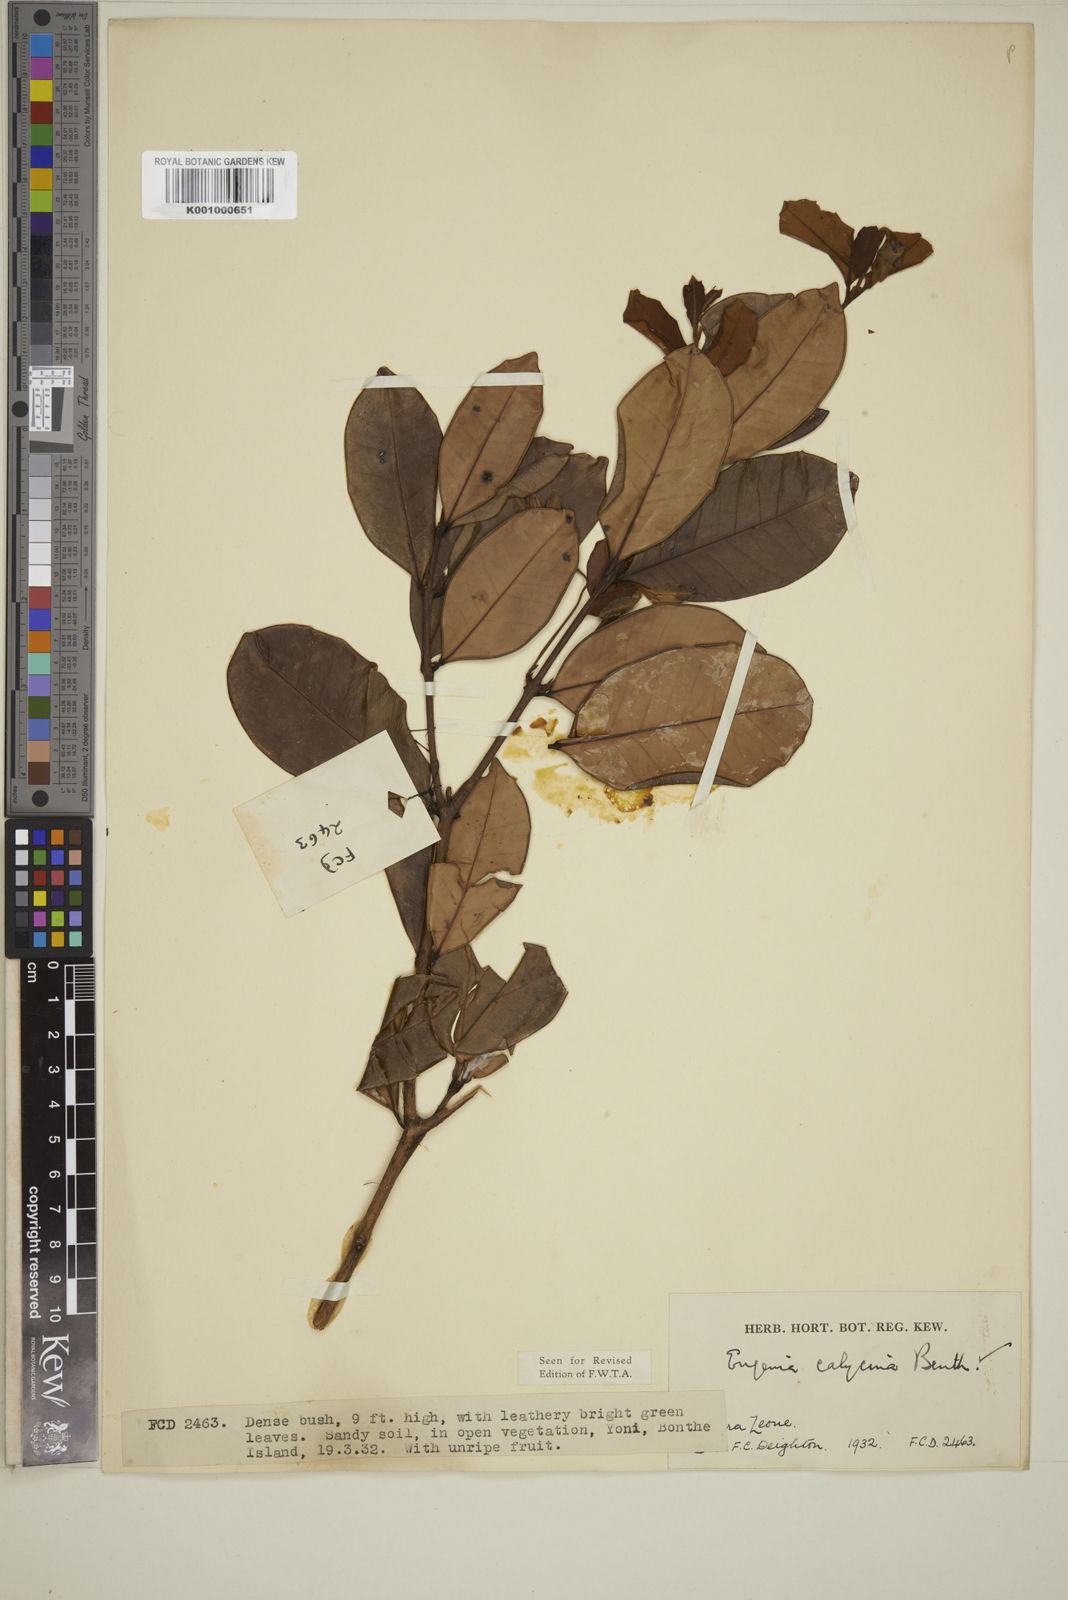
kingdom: Plantae
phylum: Tracheophyta
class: Magnoliopsida
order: Myrtales
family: Myrtaceae
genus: Eugenia
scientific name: Eugenia liberiana
